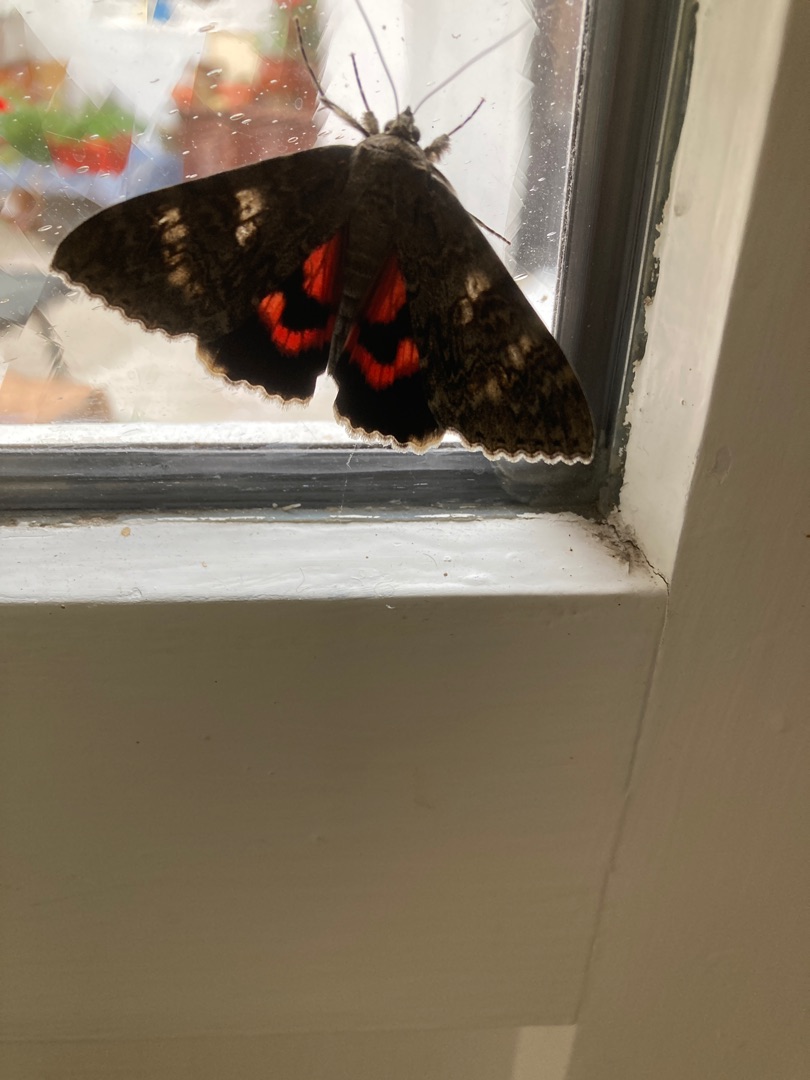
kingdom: Animalia
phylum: Arthropoda
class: Insecta
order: Lepidoptera
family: Erebidae
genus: Catocala
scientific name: Catocala nupta
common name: Rødt ordensbånd
